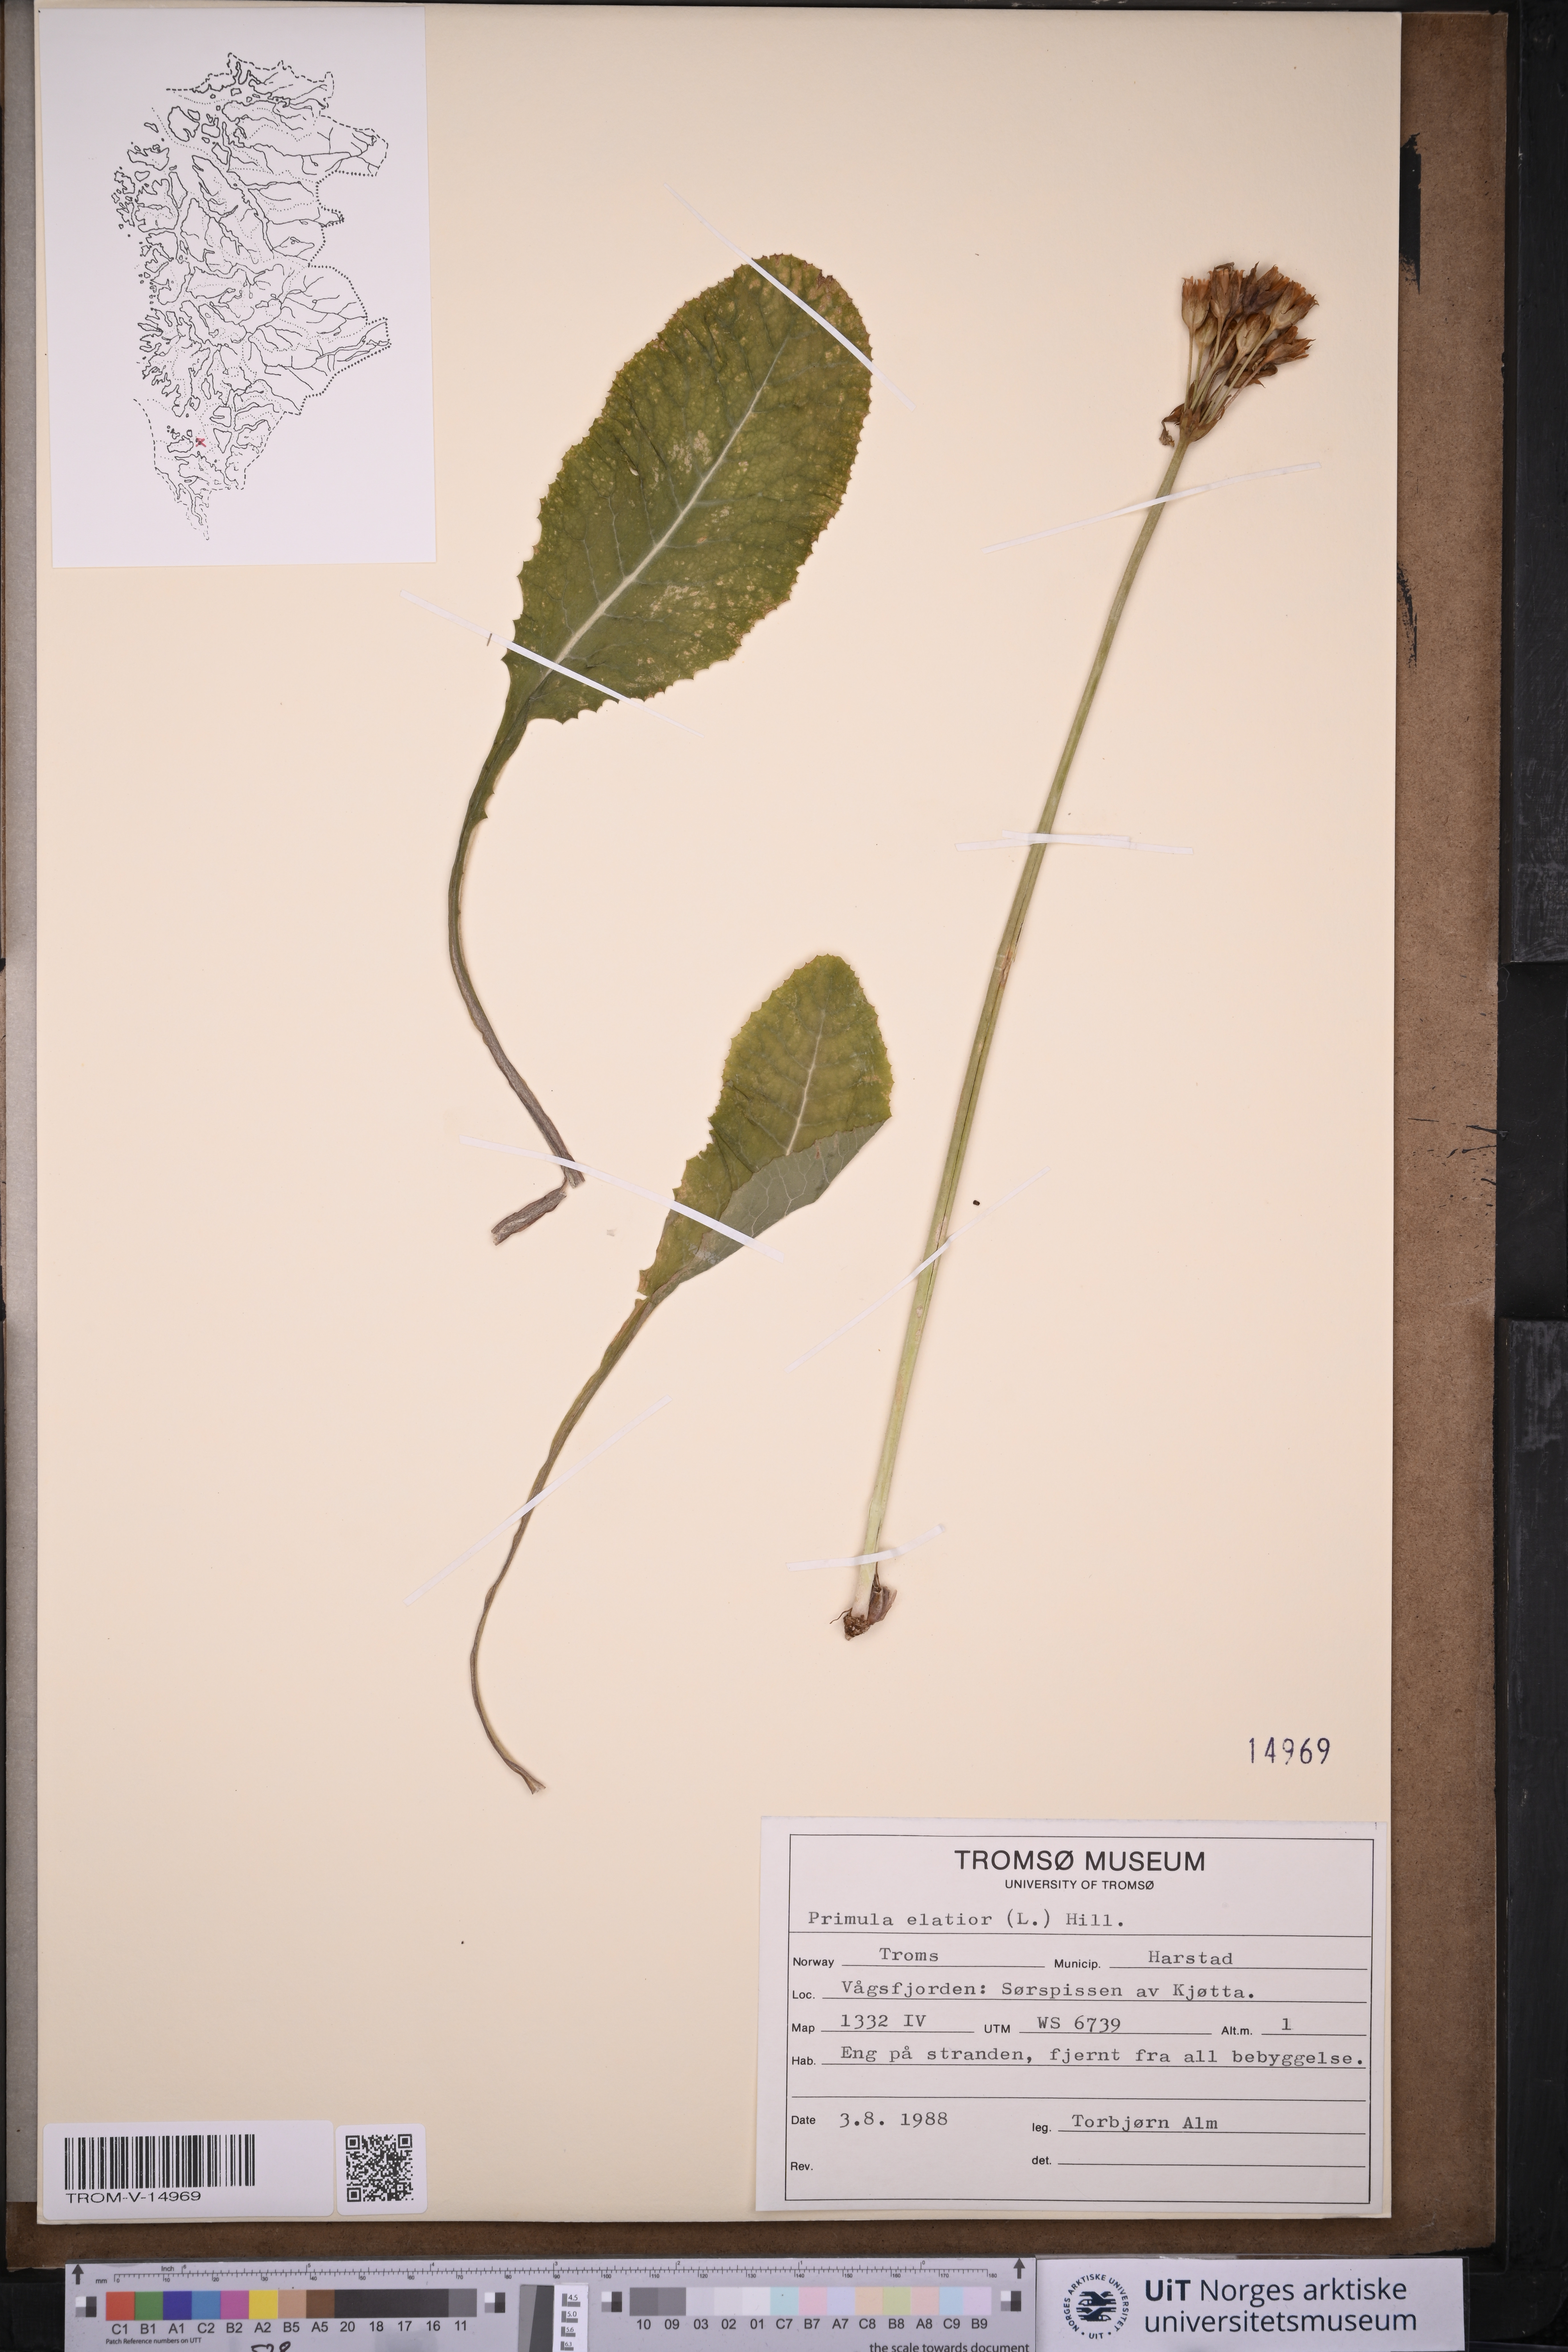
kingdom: Plantae
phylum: Tracheophyta
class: Magnoliopsida
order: Ericales
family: Primulaceae
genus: Primula
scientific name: Primula elatior
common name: Oxlip
